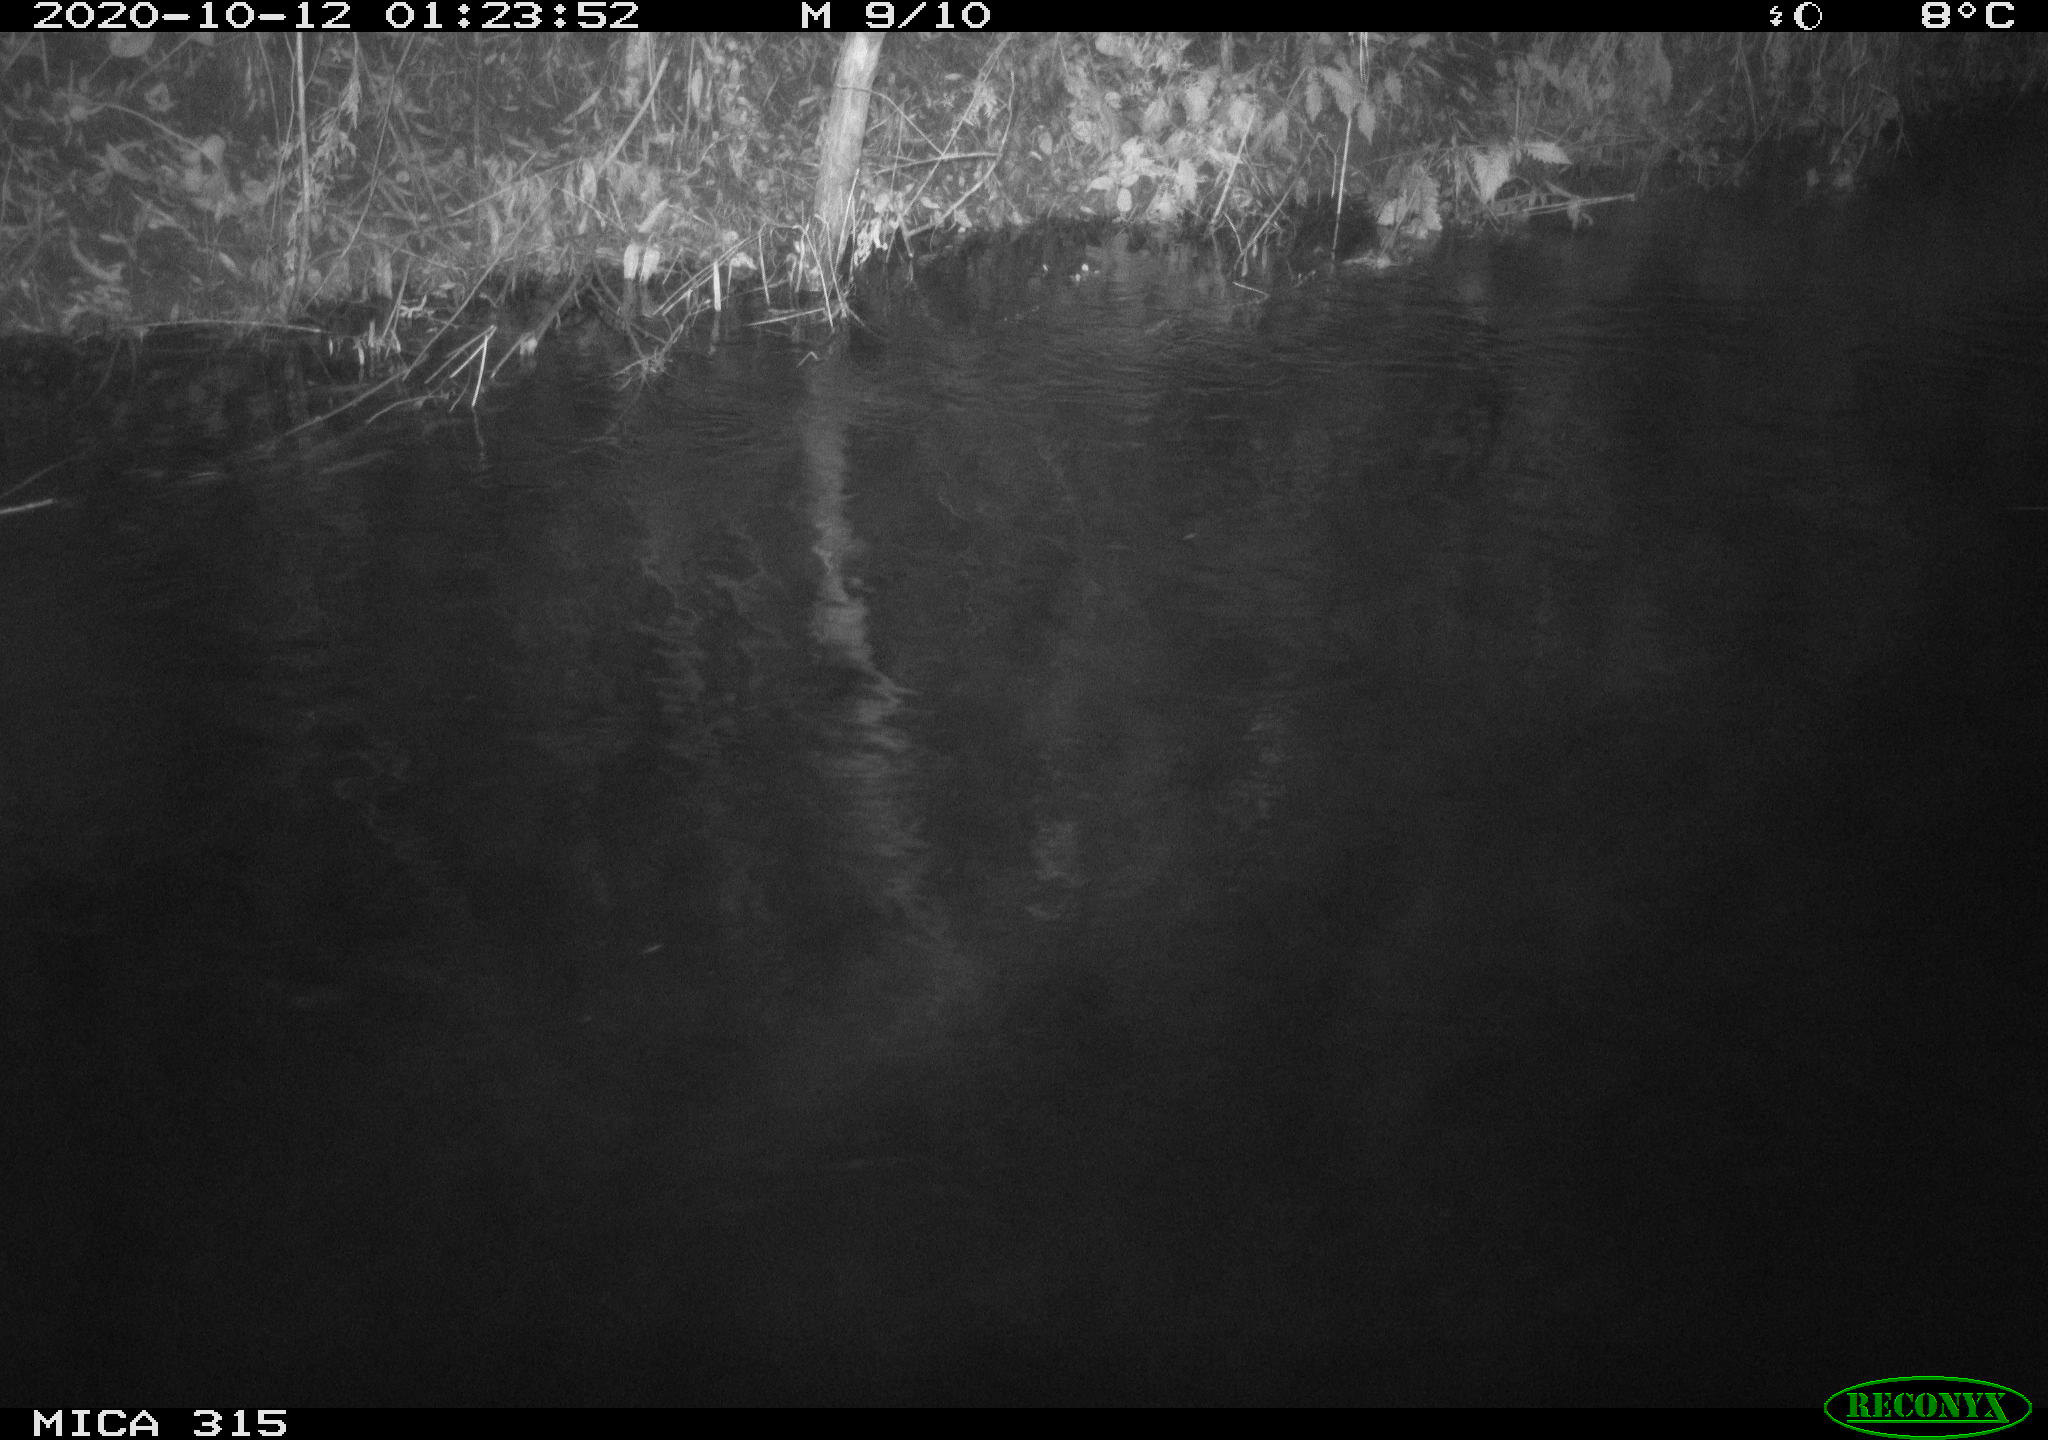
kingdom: Animalia
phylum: Chordata
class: Aves
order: Anseriformes
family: Anatidae
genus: Anas
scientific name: Anas platyrhynchos
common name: Mallard
